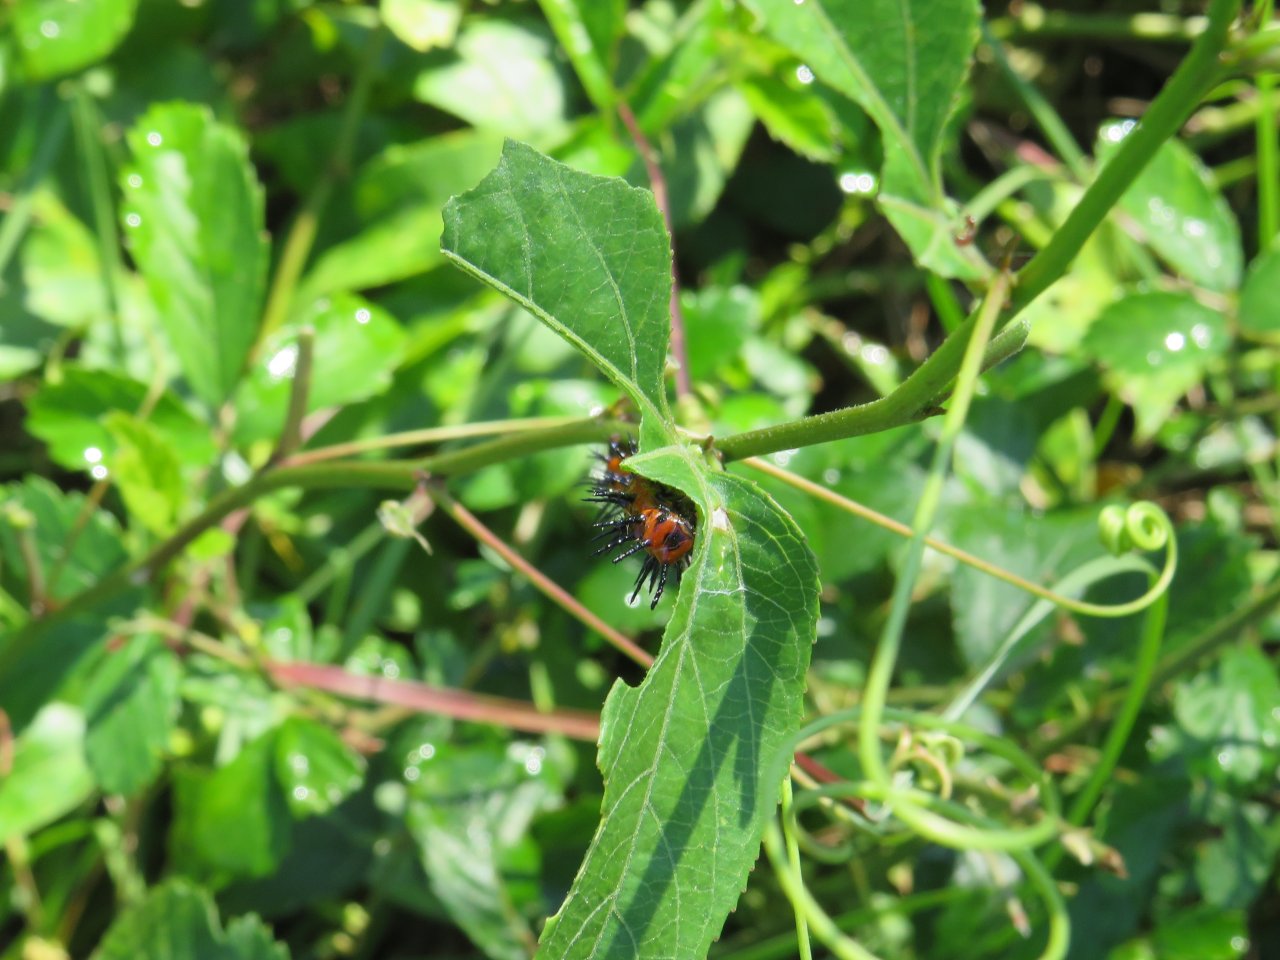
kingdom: Animalia
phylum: Arthropoda
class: Insecta
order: Lepidoptera
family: Nymphalidae
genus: Dione
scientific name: Dione vanillae
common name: Gulf Fritillary
